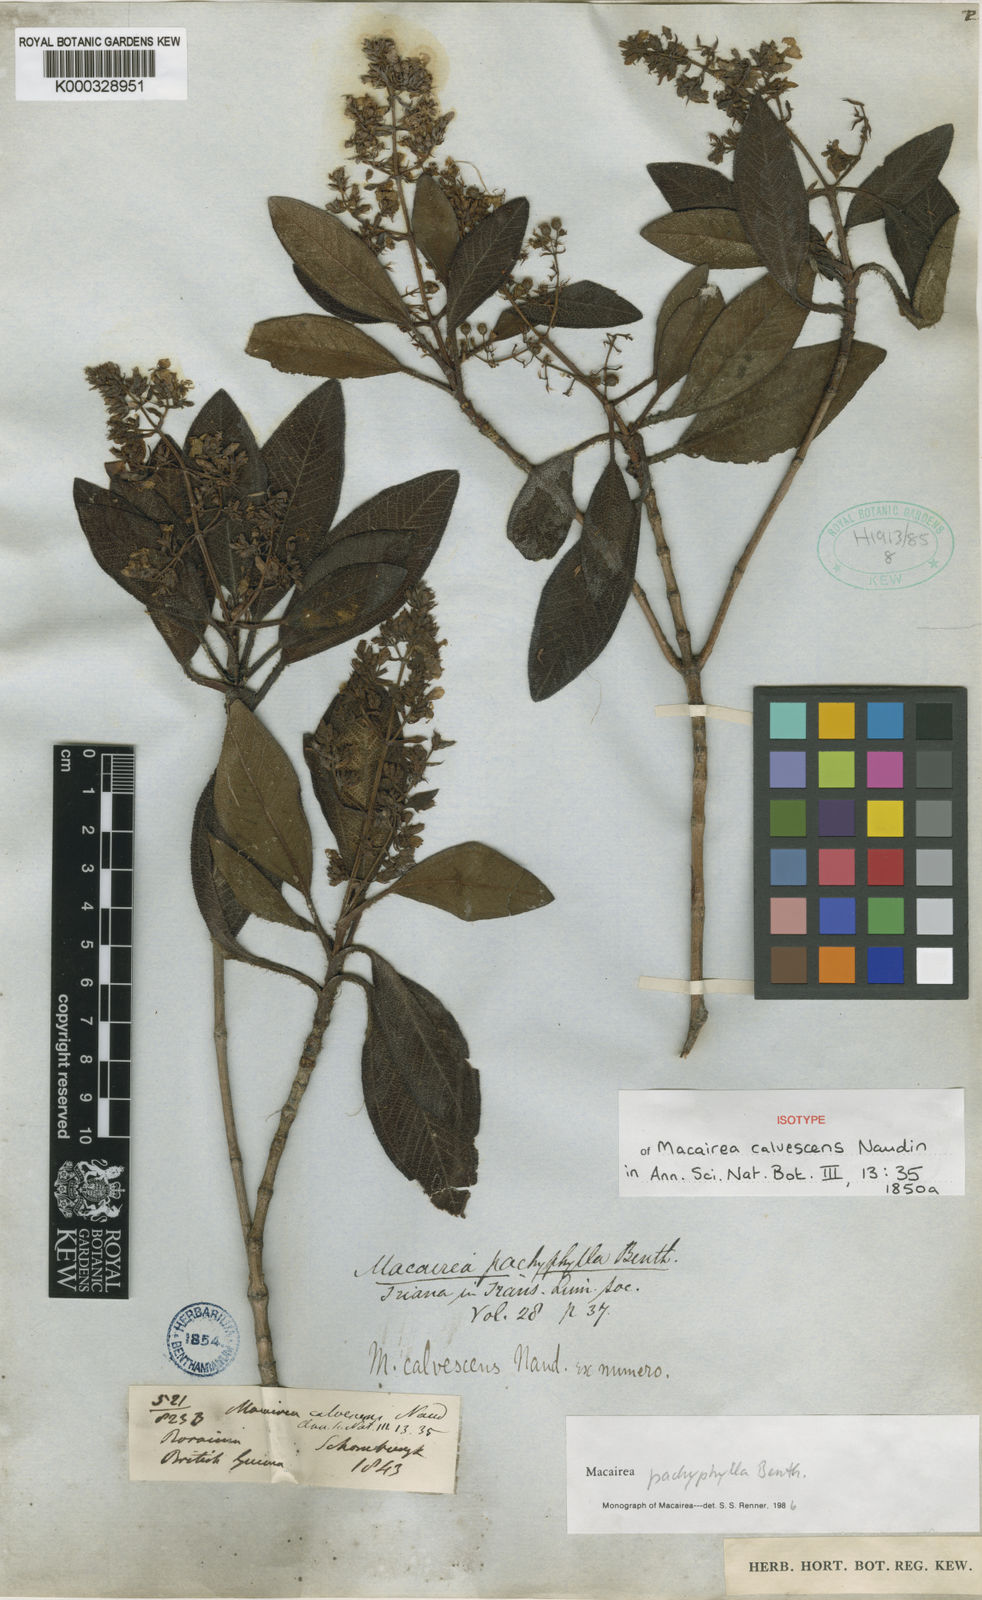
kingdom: Plantae
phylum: Tracheophyta
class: Magnoliopsida
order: Myrtales
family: Melastomataceae
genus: Macairea
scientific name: Macairea pachyphylla
